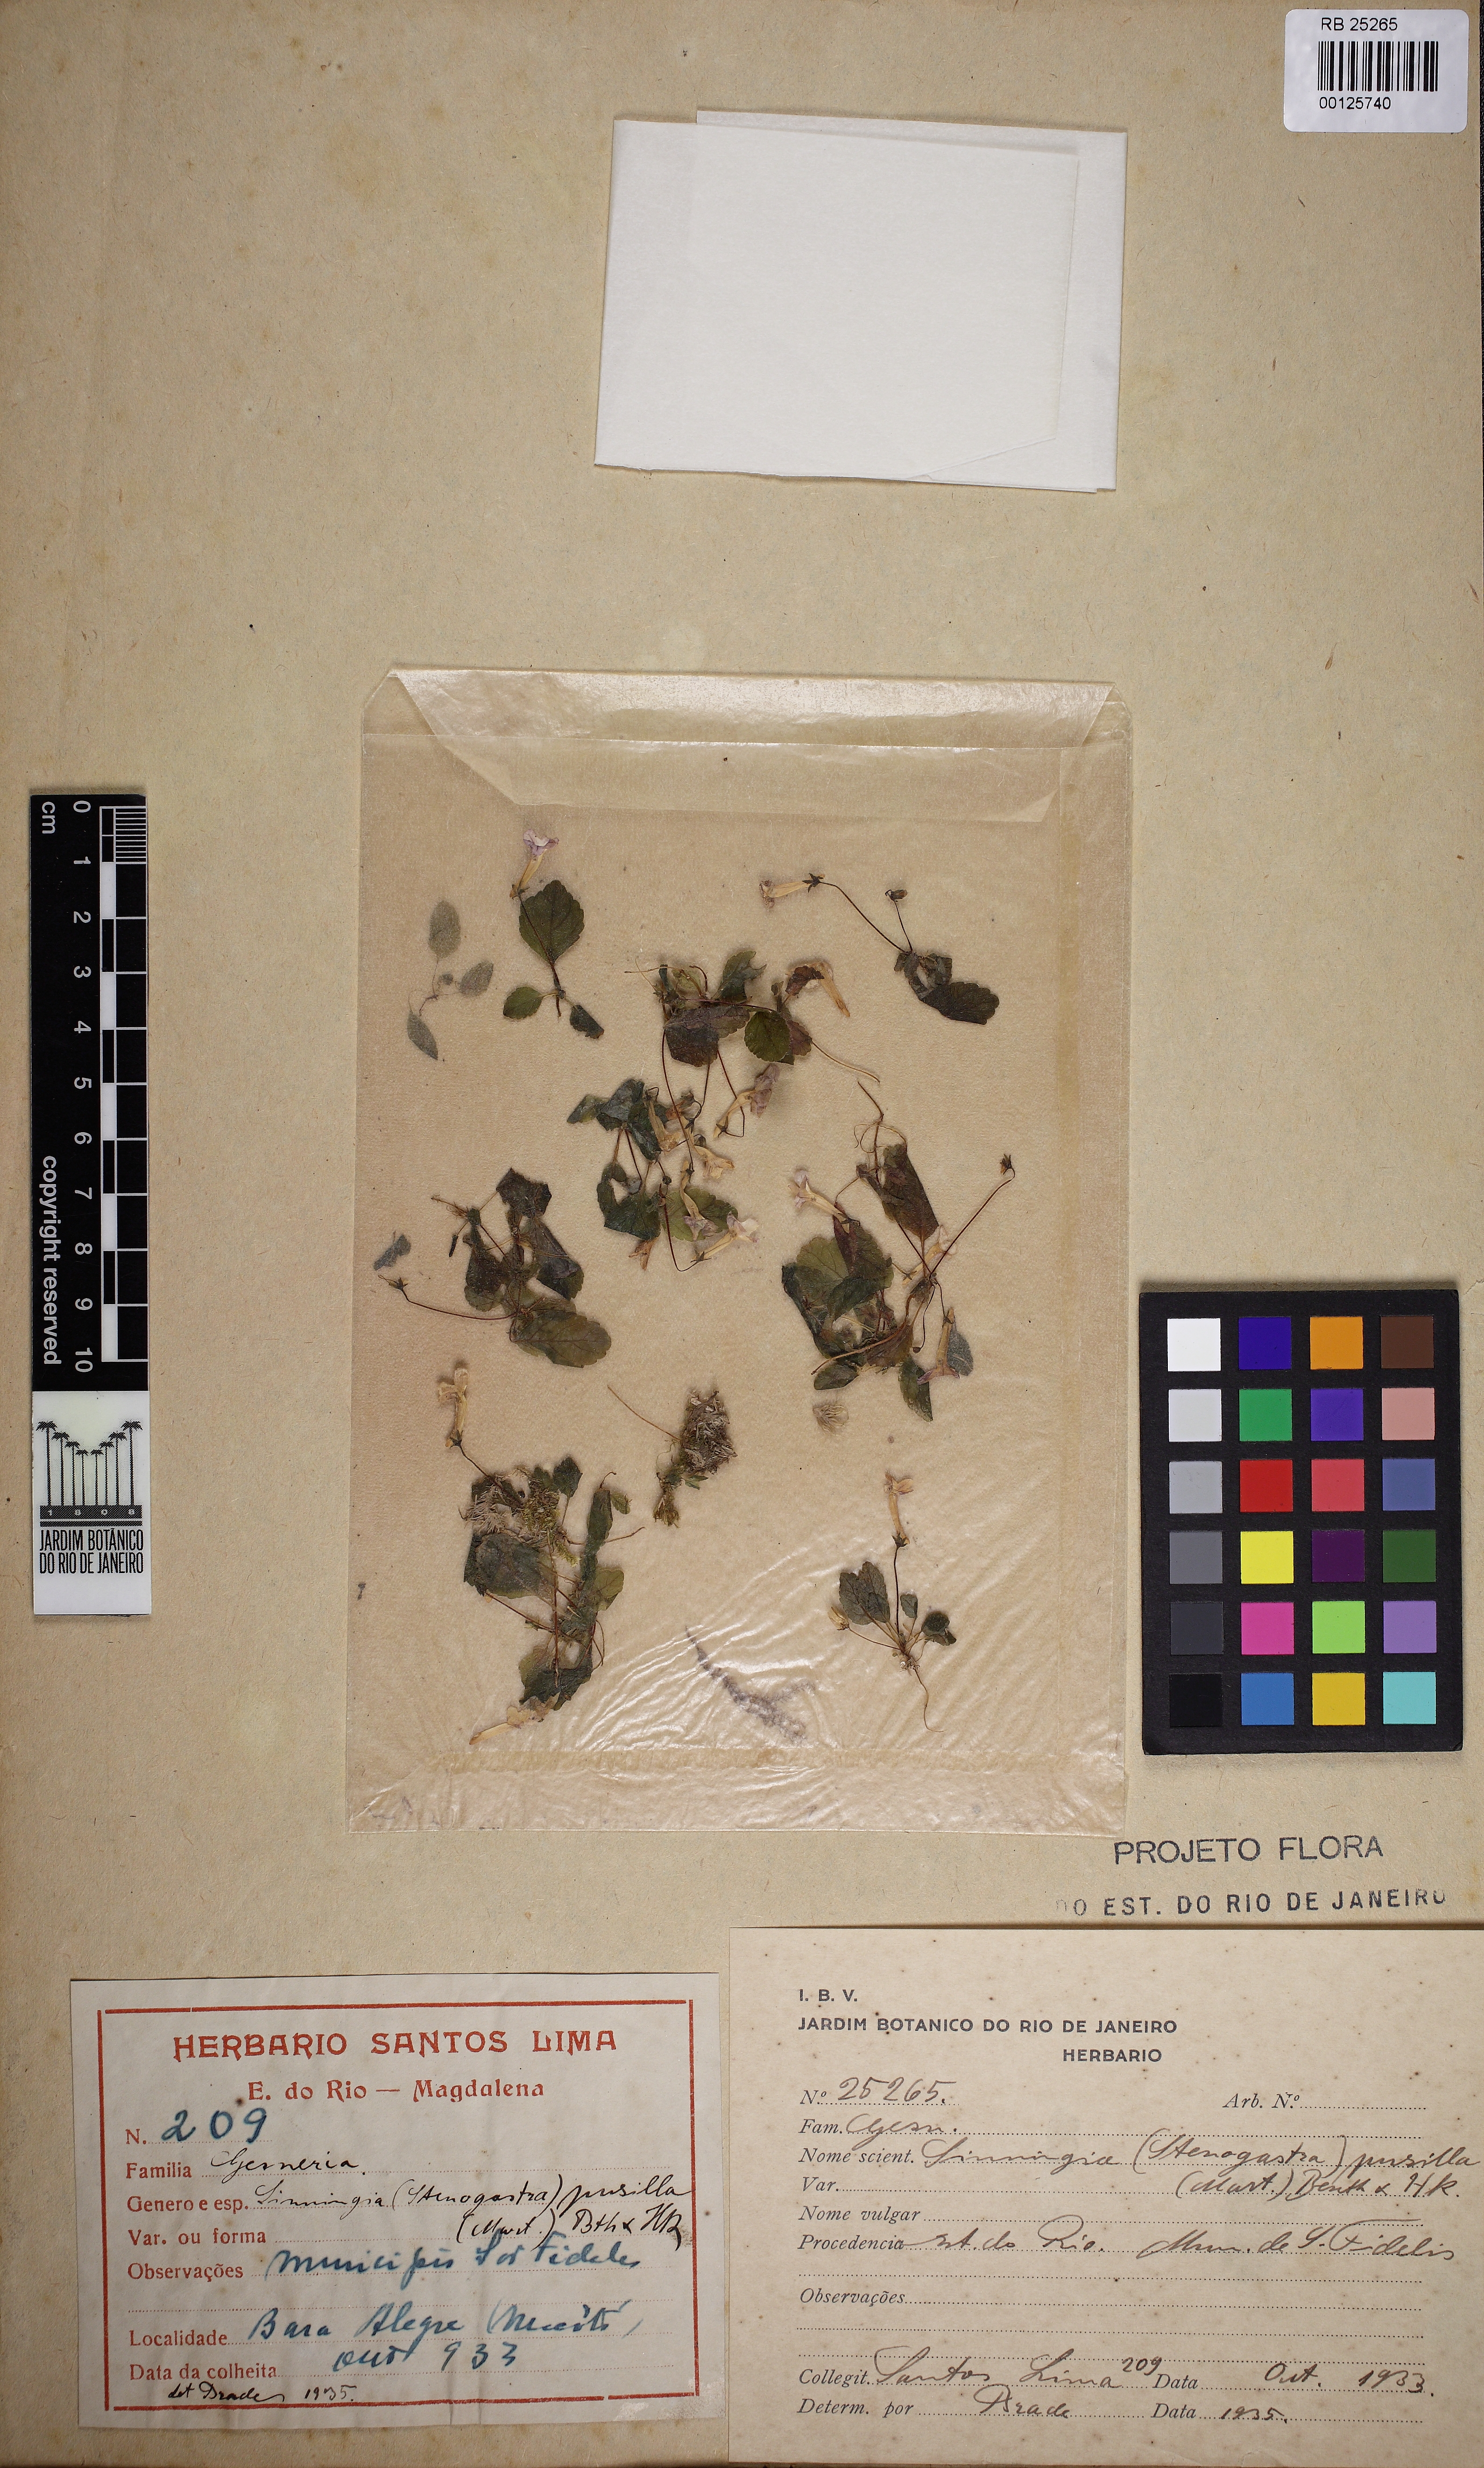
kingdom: Plantae
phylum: Tracheophyta
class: Magnoliopsida
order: Lamiales
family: Gesneriaceae
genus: Sinningia
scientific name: Sinningia pusilla
